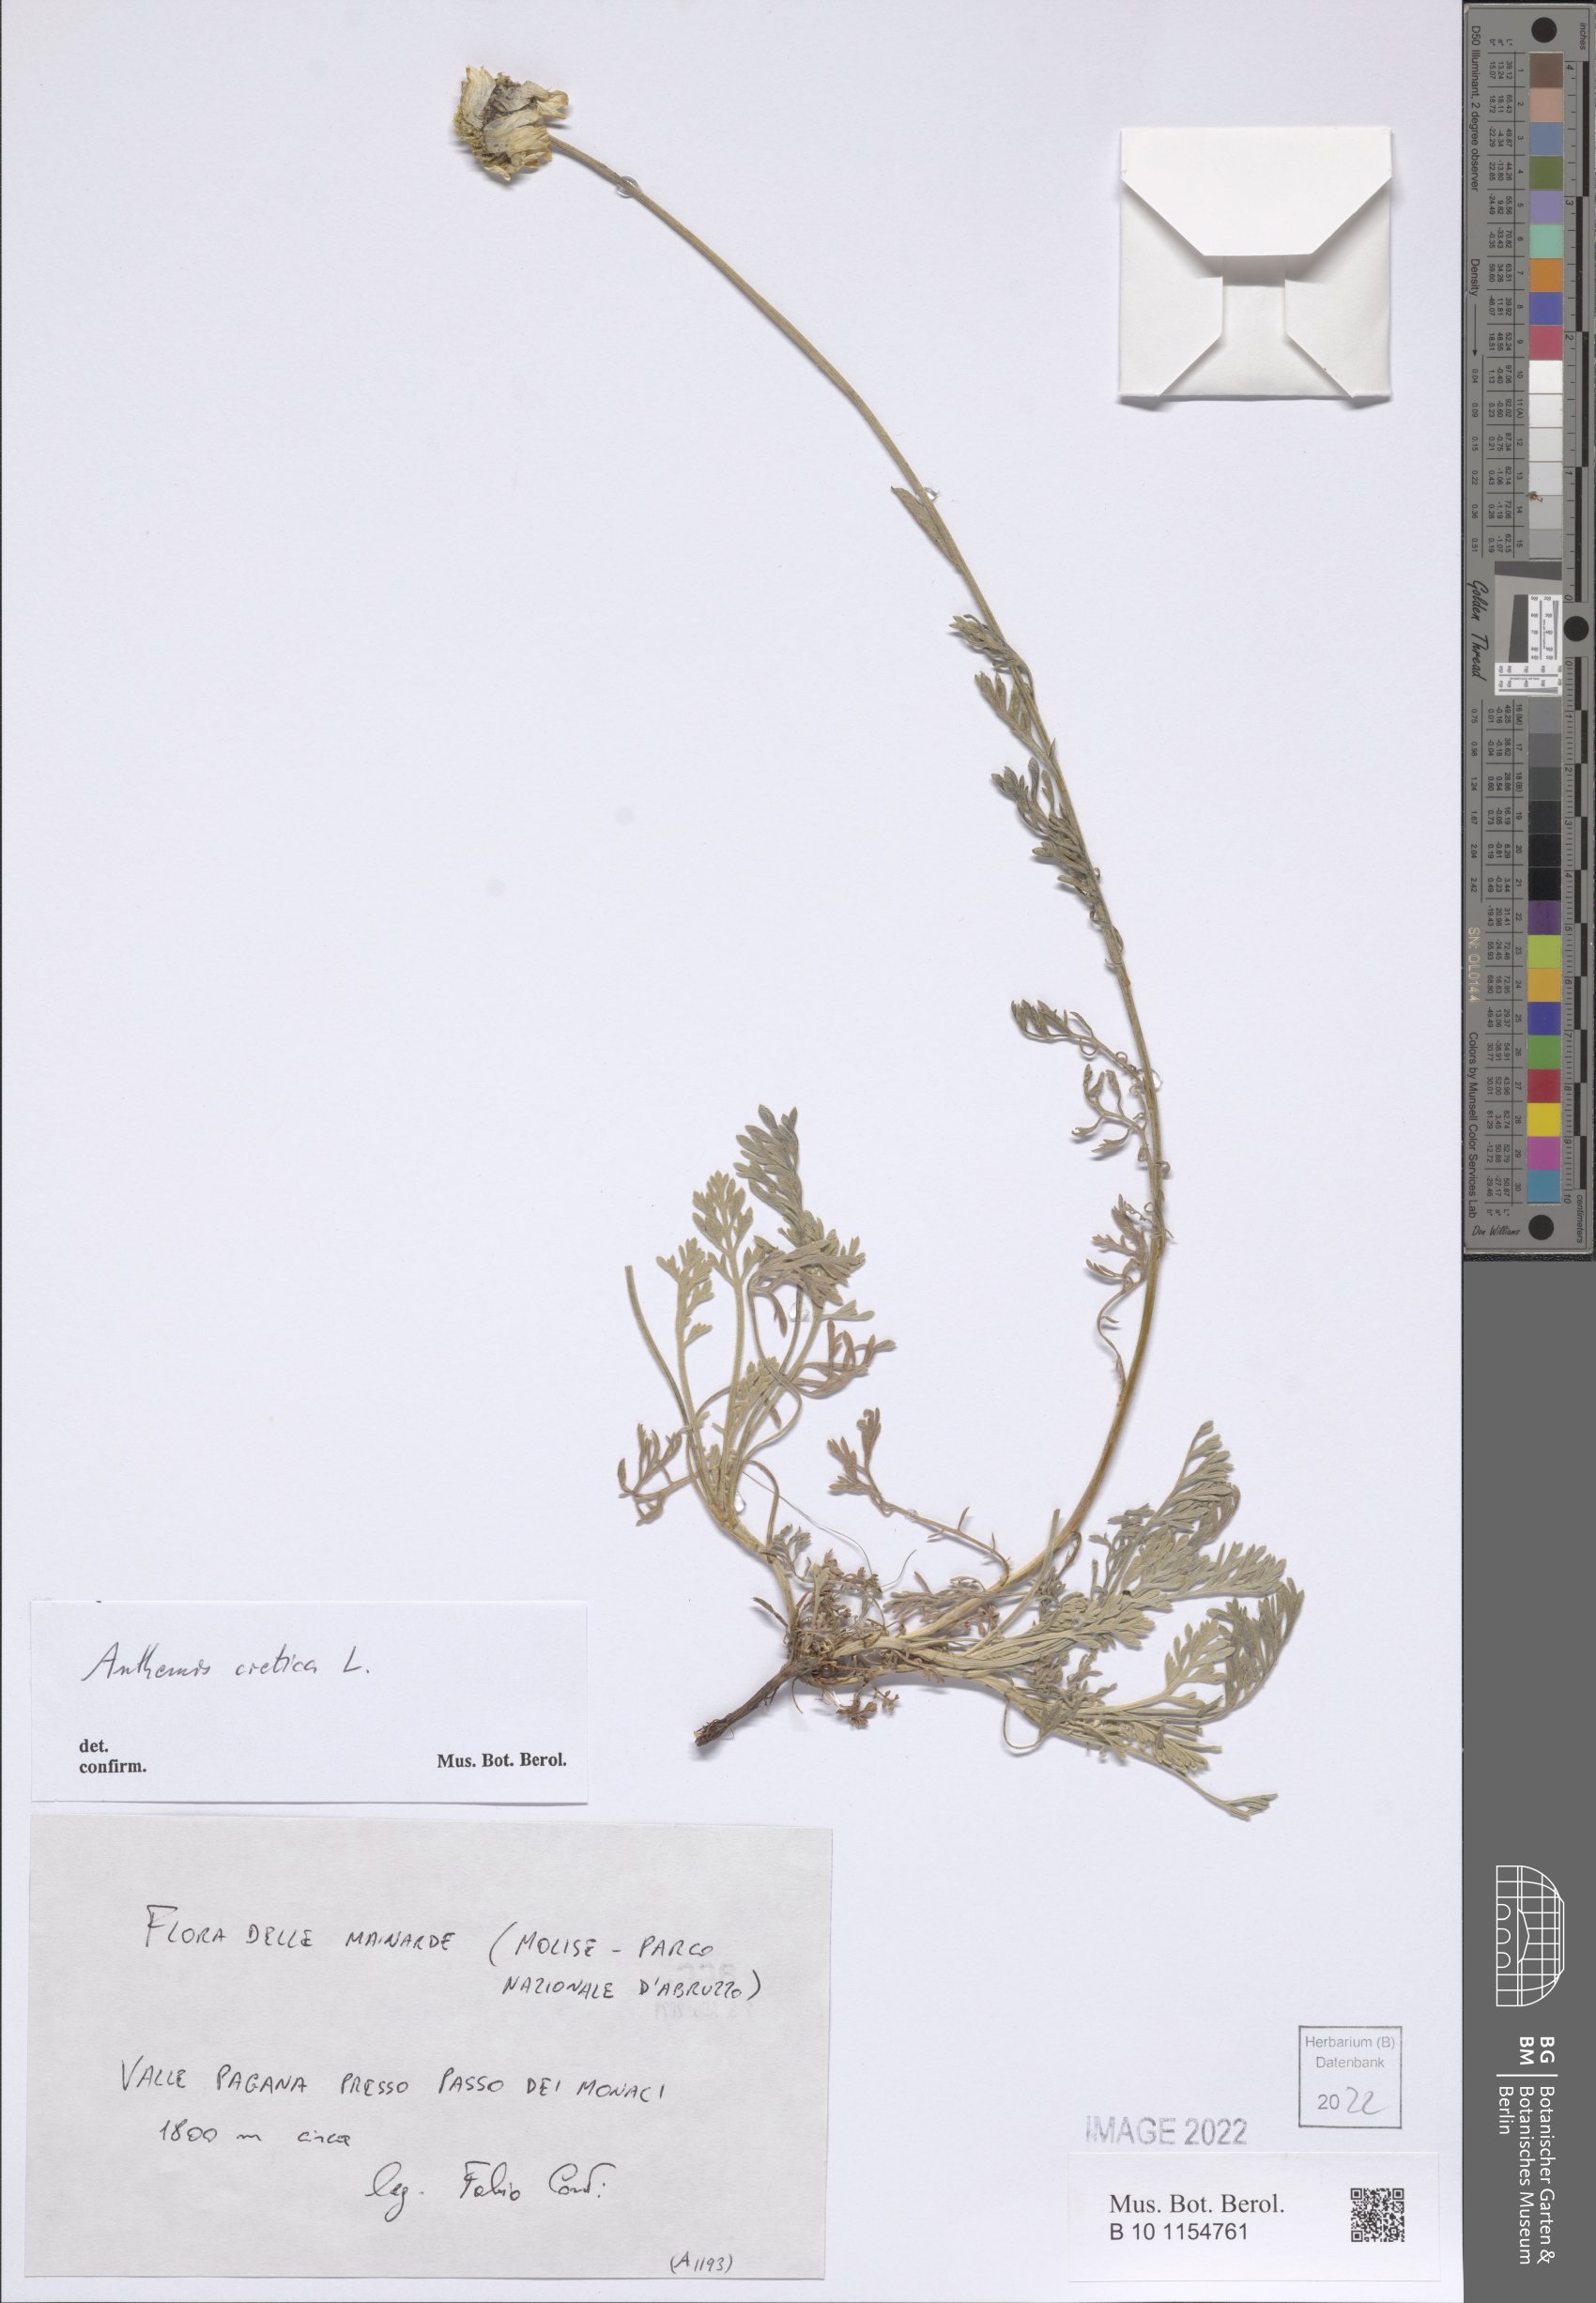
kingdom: Plantae
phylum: Tracheophyta
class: Magnoliopsida
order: Asterales
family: Asteraceae
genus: Anthemis
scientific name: Anthemis cretica
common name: Mountain dog-daisy
